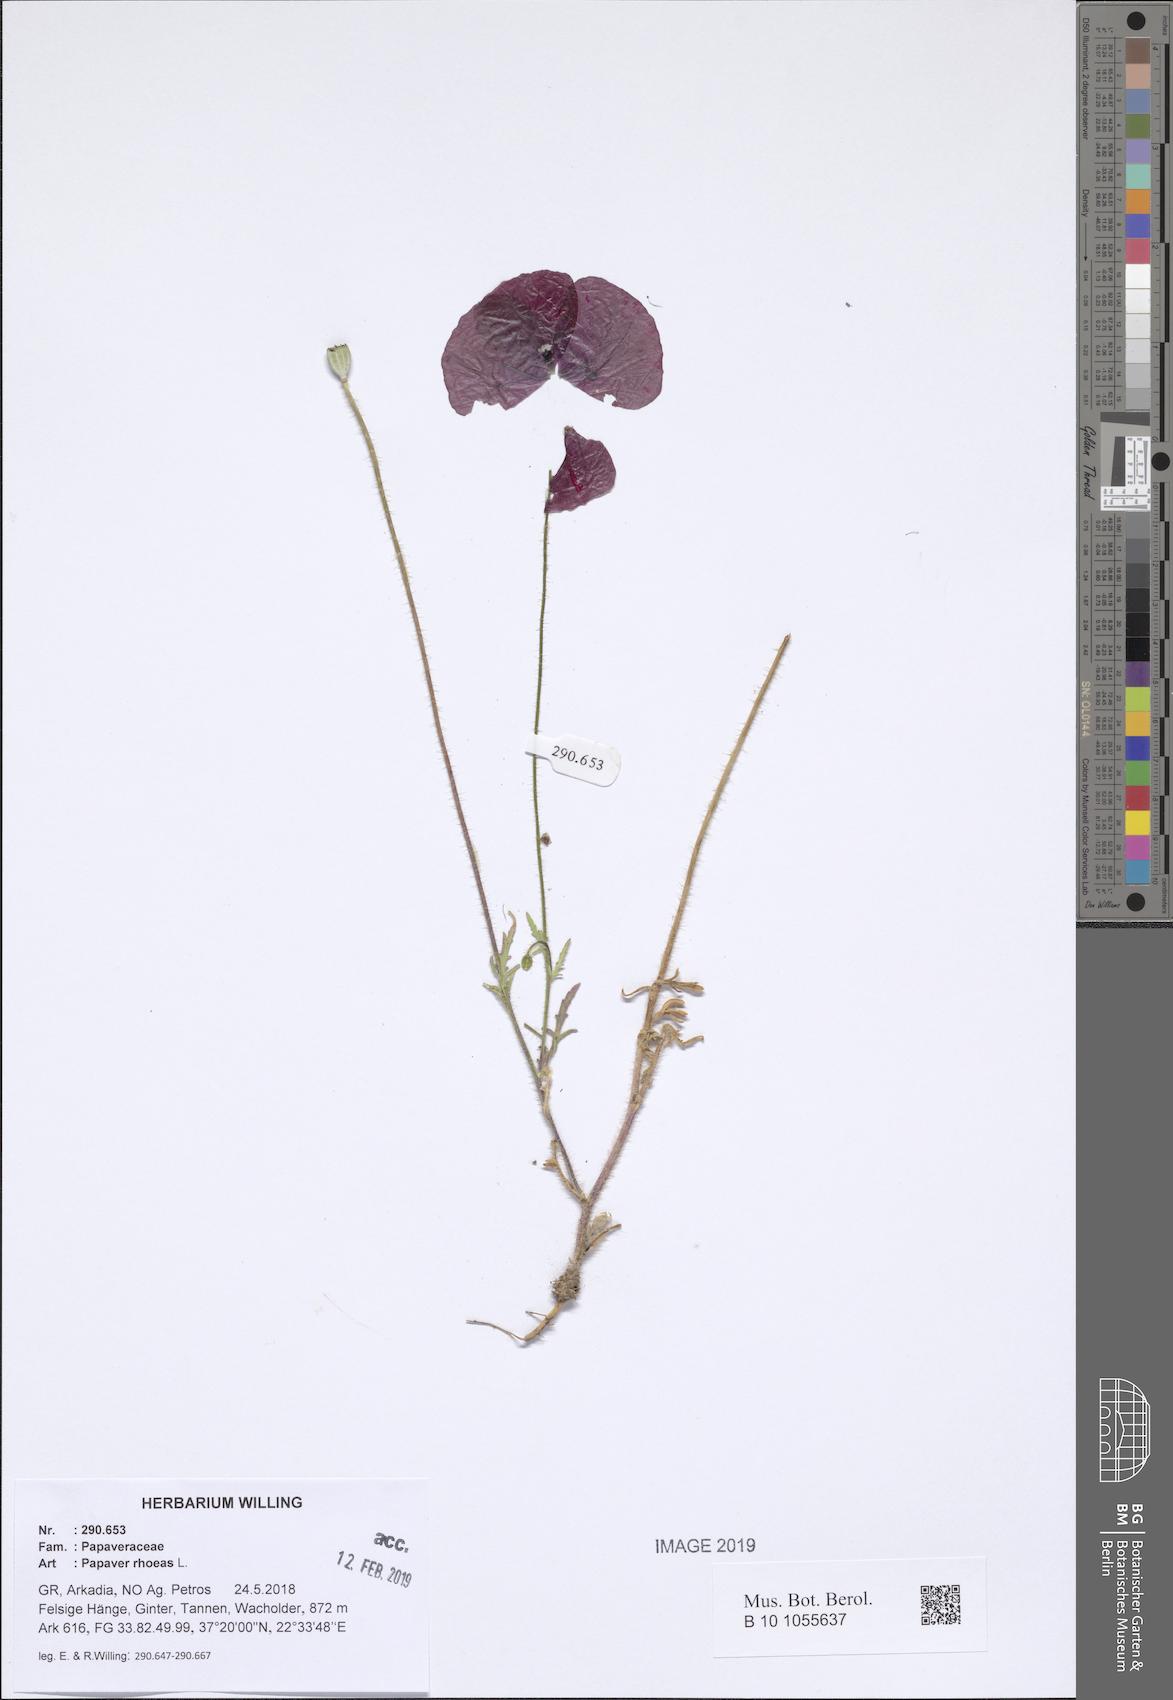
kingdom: Plantae
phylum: Tracheophyta
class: Magnoliopsida
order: Ranunculales
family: Papaveraceae
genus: Papaver
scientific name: Papaver rhoeas
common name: Corn poppy
